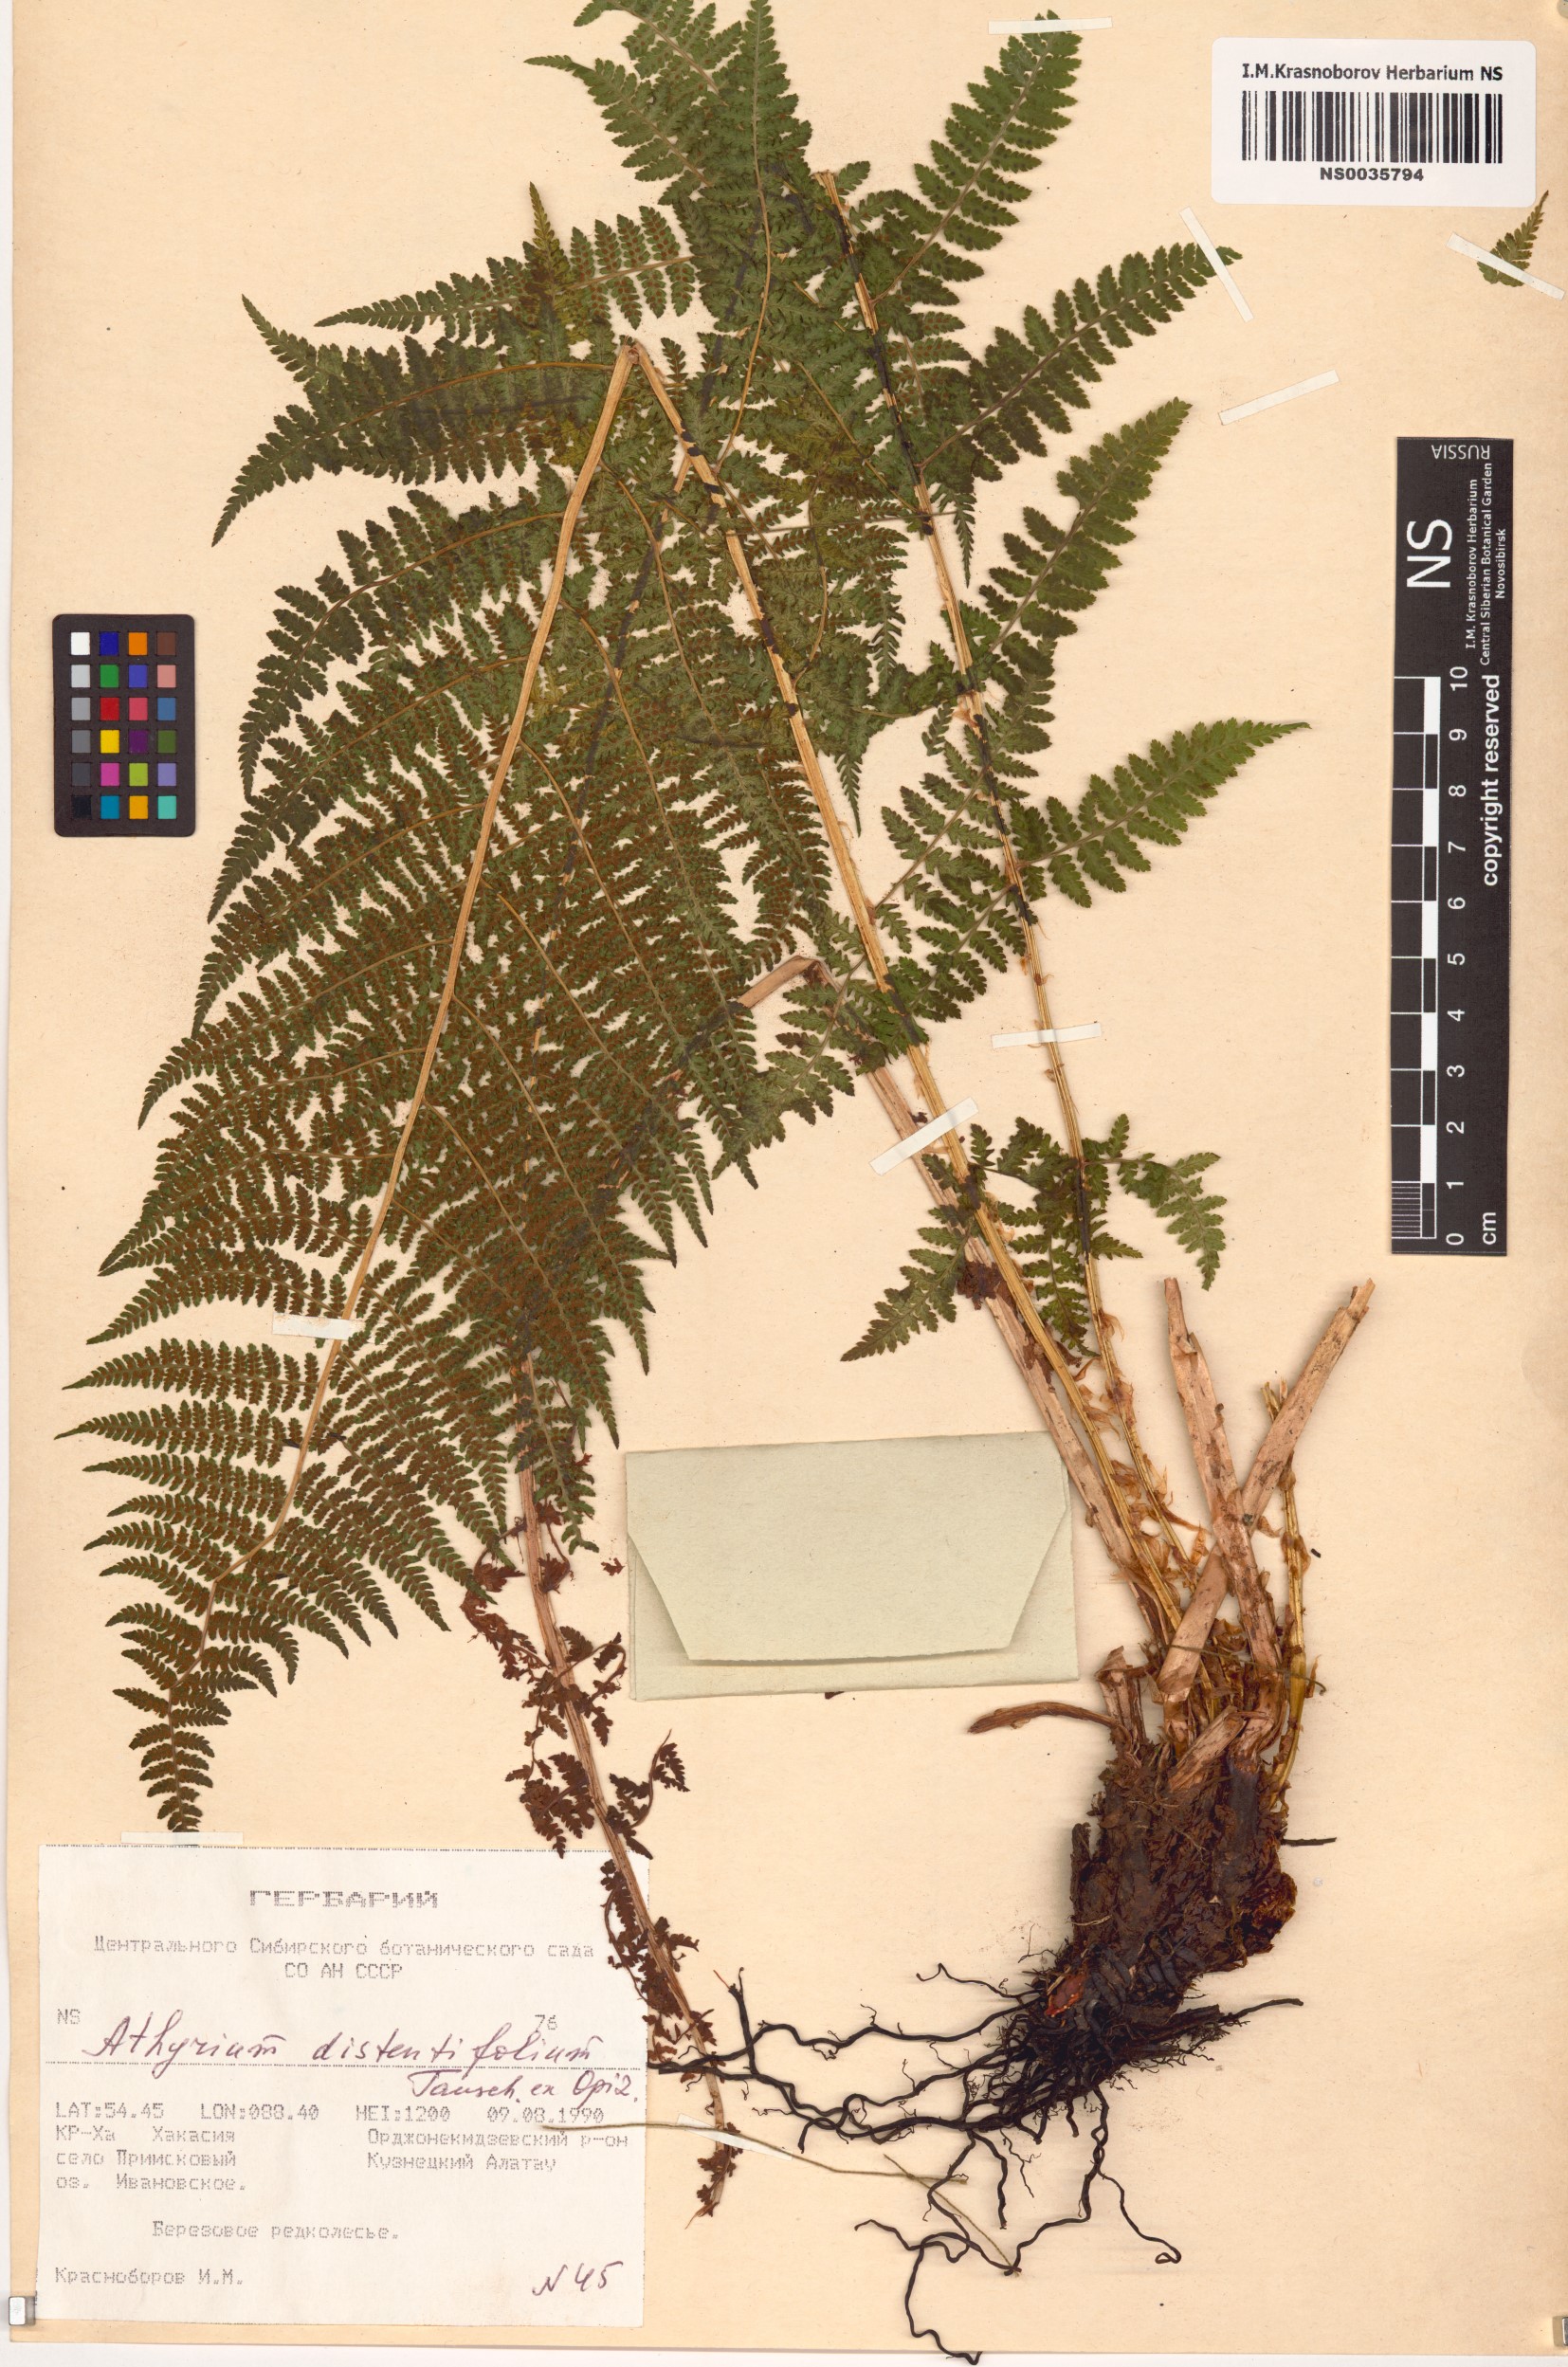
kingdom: Plantae
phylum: Tracheophyta
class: Polypodiopsida
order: Polypodiales
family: Athyriaceae
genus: Pseudathyrium
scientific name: Pseudathyrium alpestre
